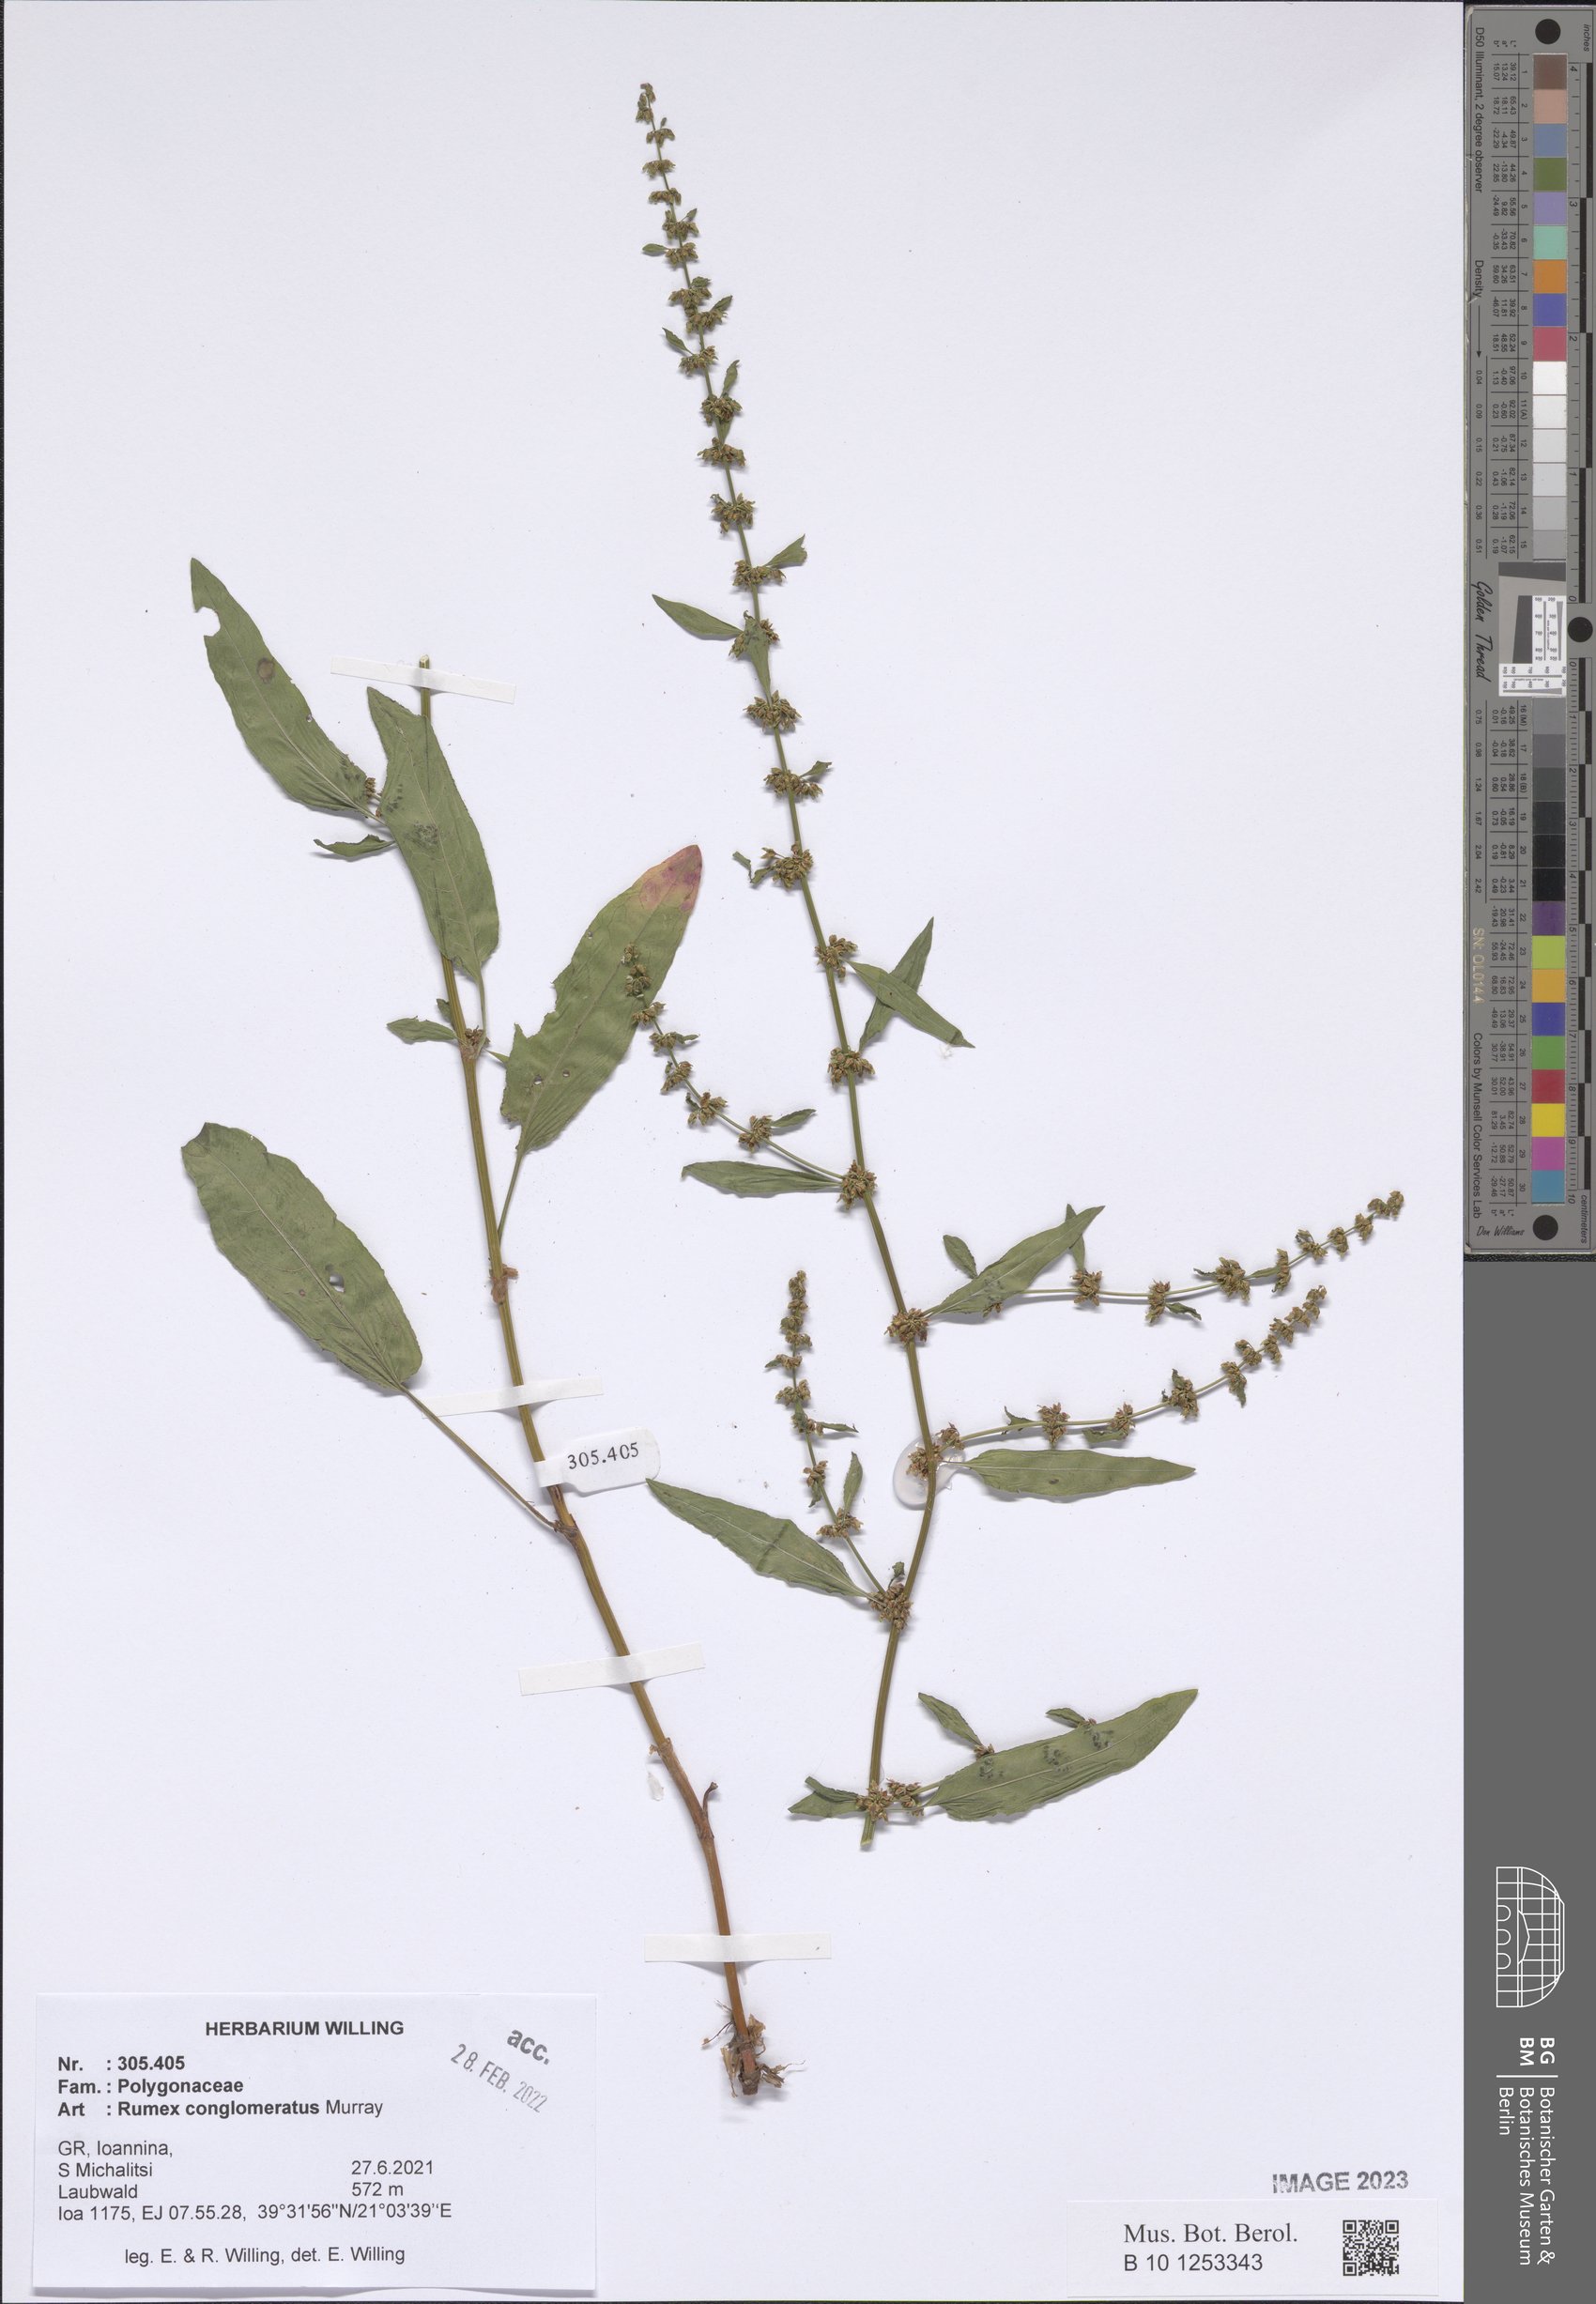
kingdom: Plantae
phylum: Tracheophyta
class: Magnoliopsida
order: Caryophyllales
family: Polygonaceae
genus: Rumex
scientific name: Rumex conglomeratus
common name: Clustered dock
